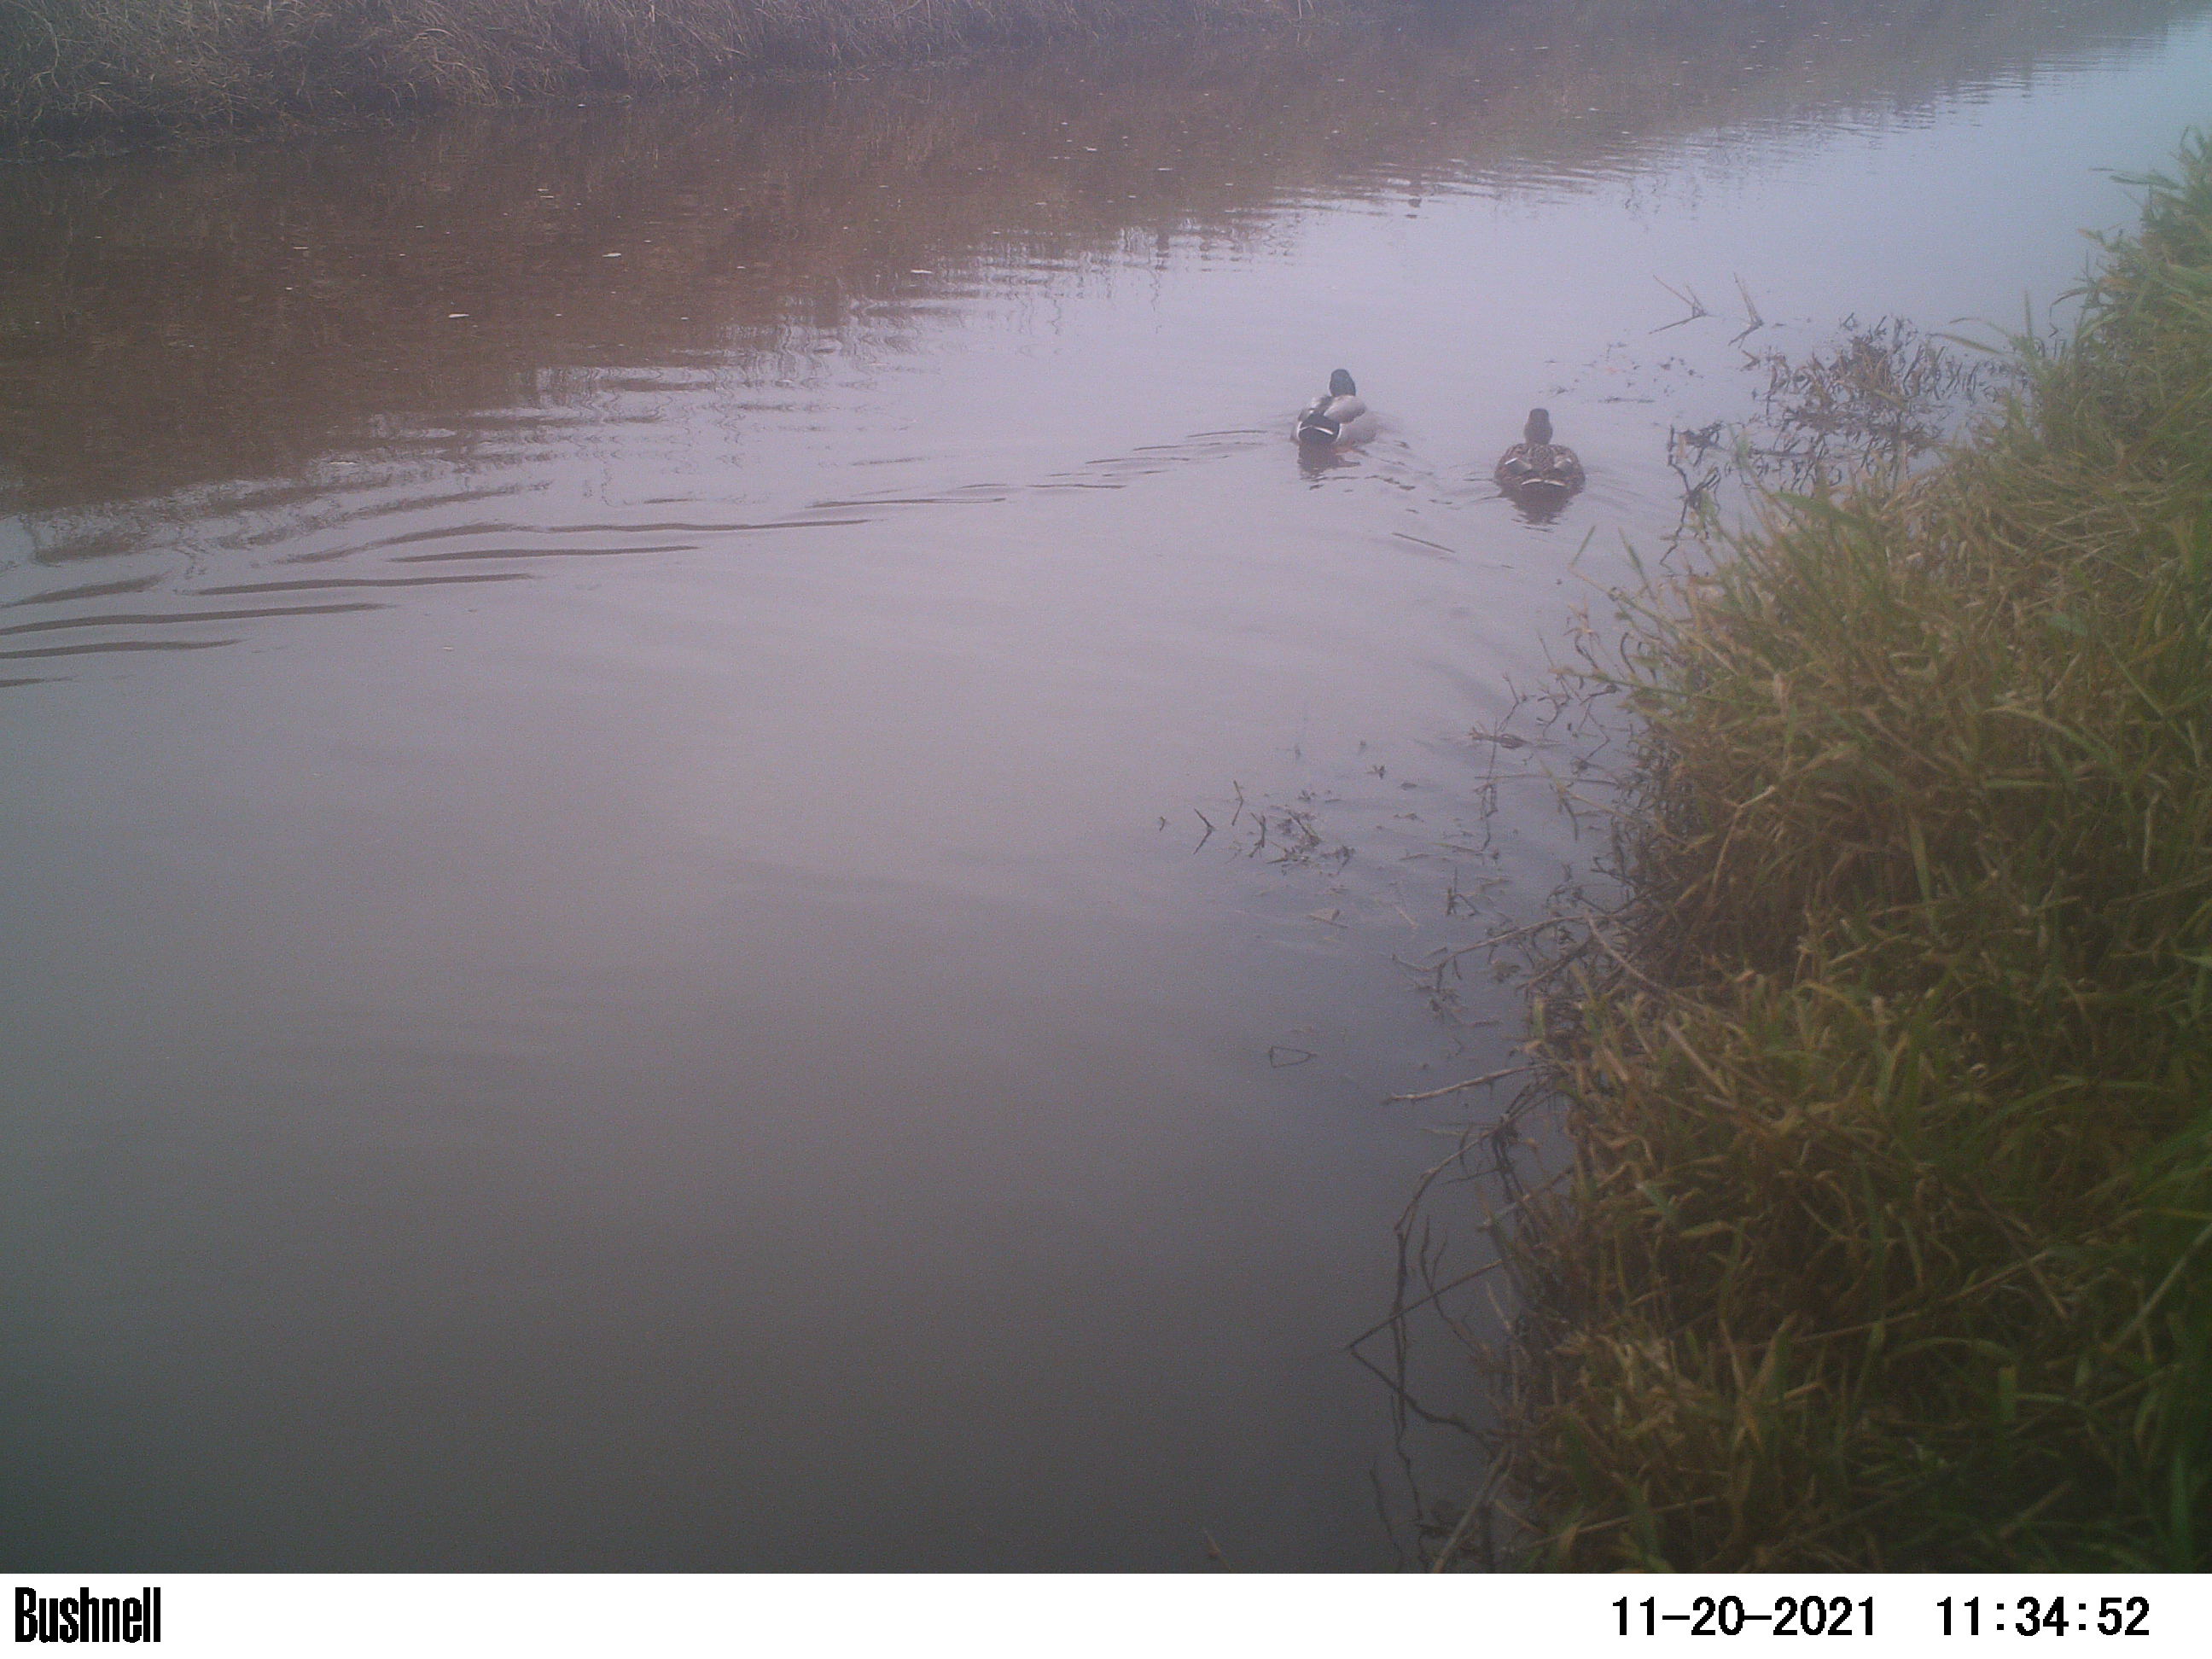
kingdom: Animalia
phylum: Chordata
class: Aves
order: Anseriformes
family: Anatidae
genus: Anas
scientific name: Anas
